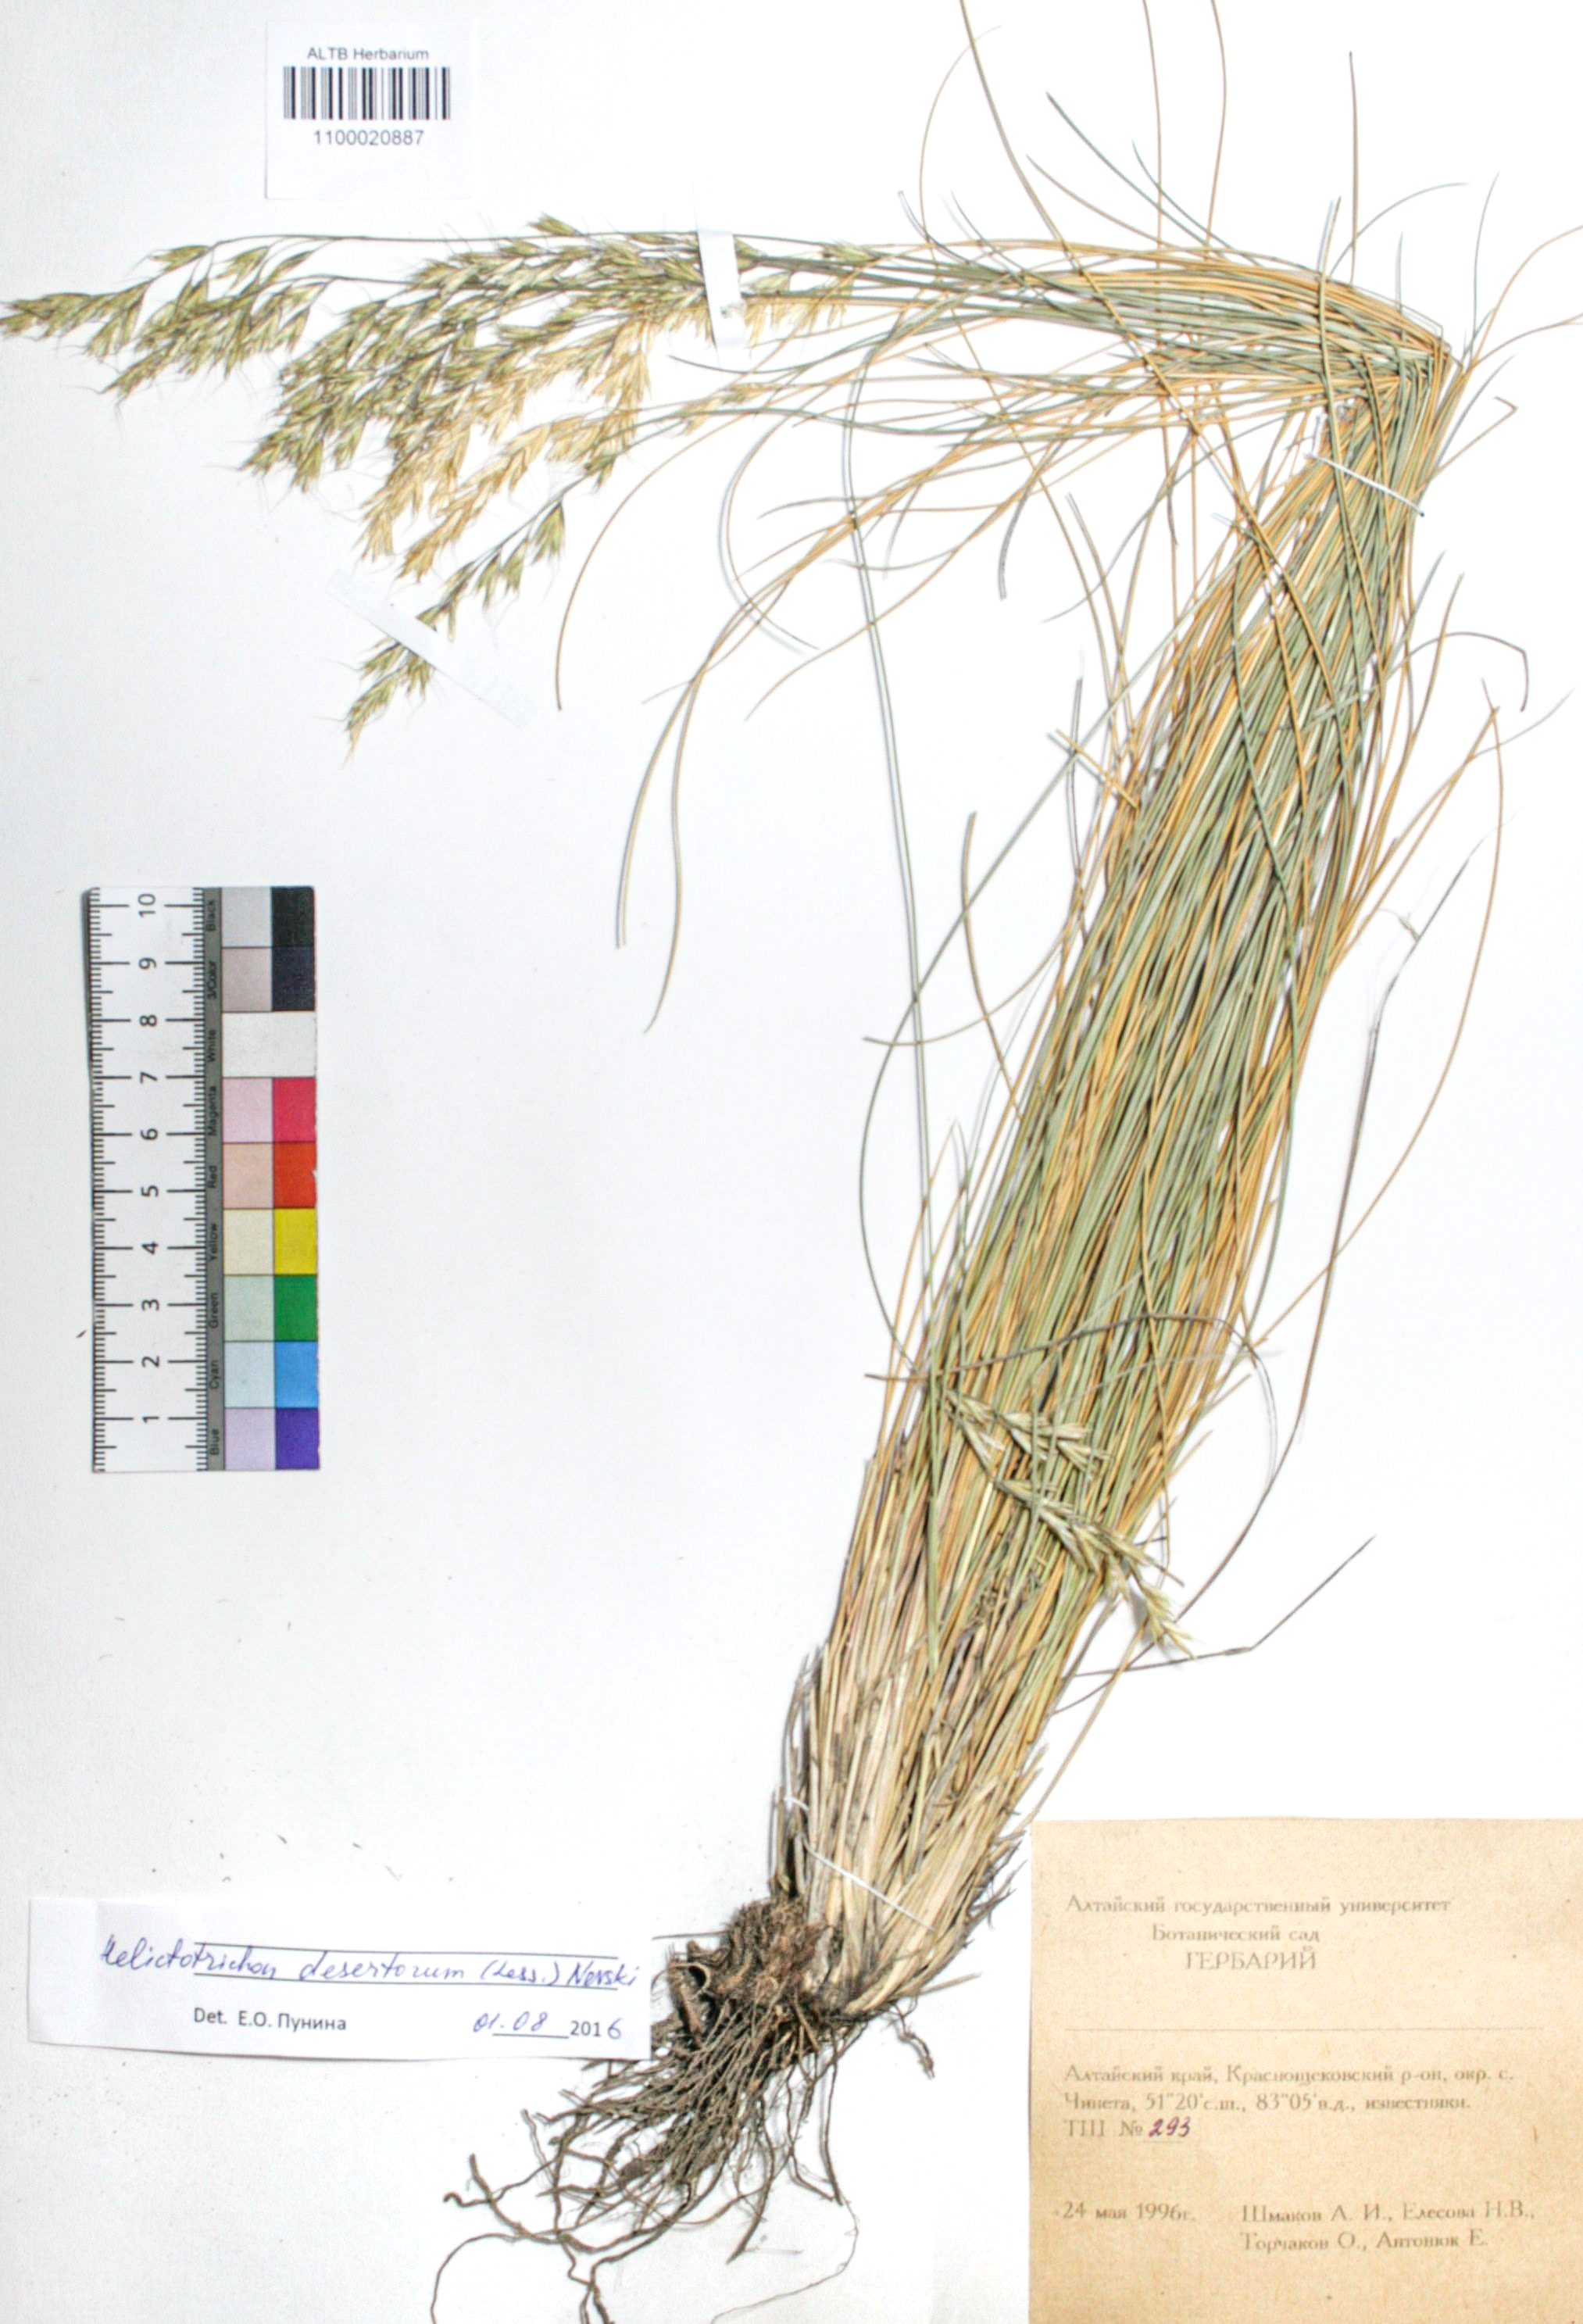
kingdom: Plantae
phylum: Tracheophyta
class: Liliopsida
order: Poales
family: Poaceae
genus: Helictotrichon
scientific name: Helictotrichon desertorum
